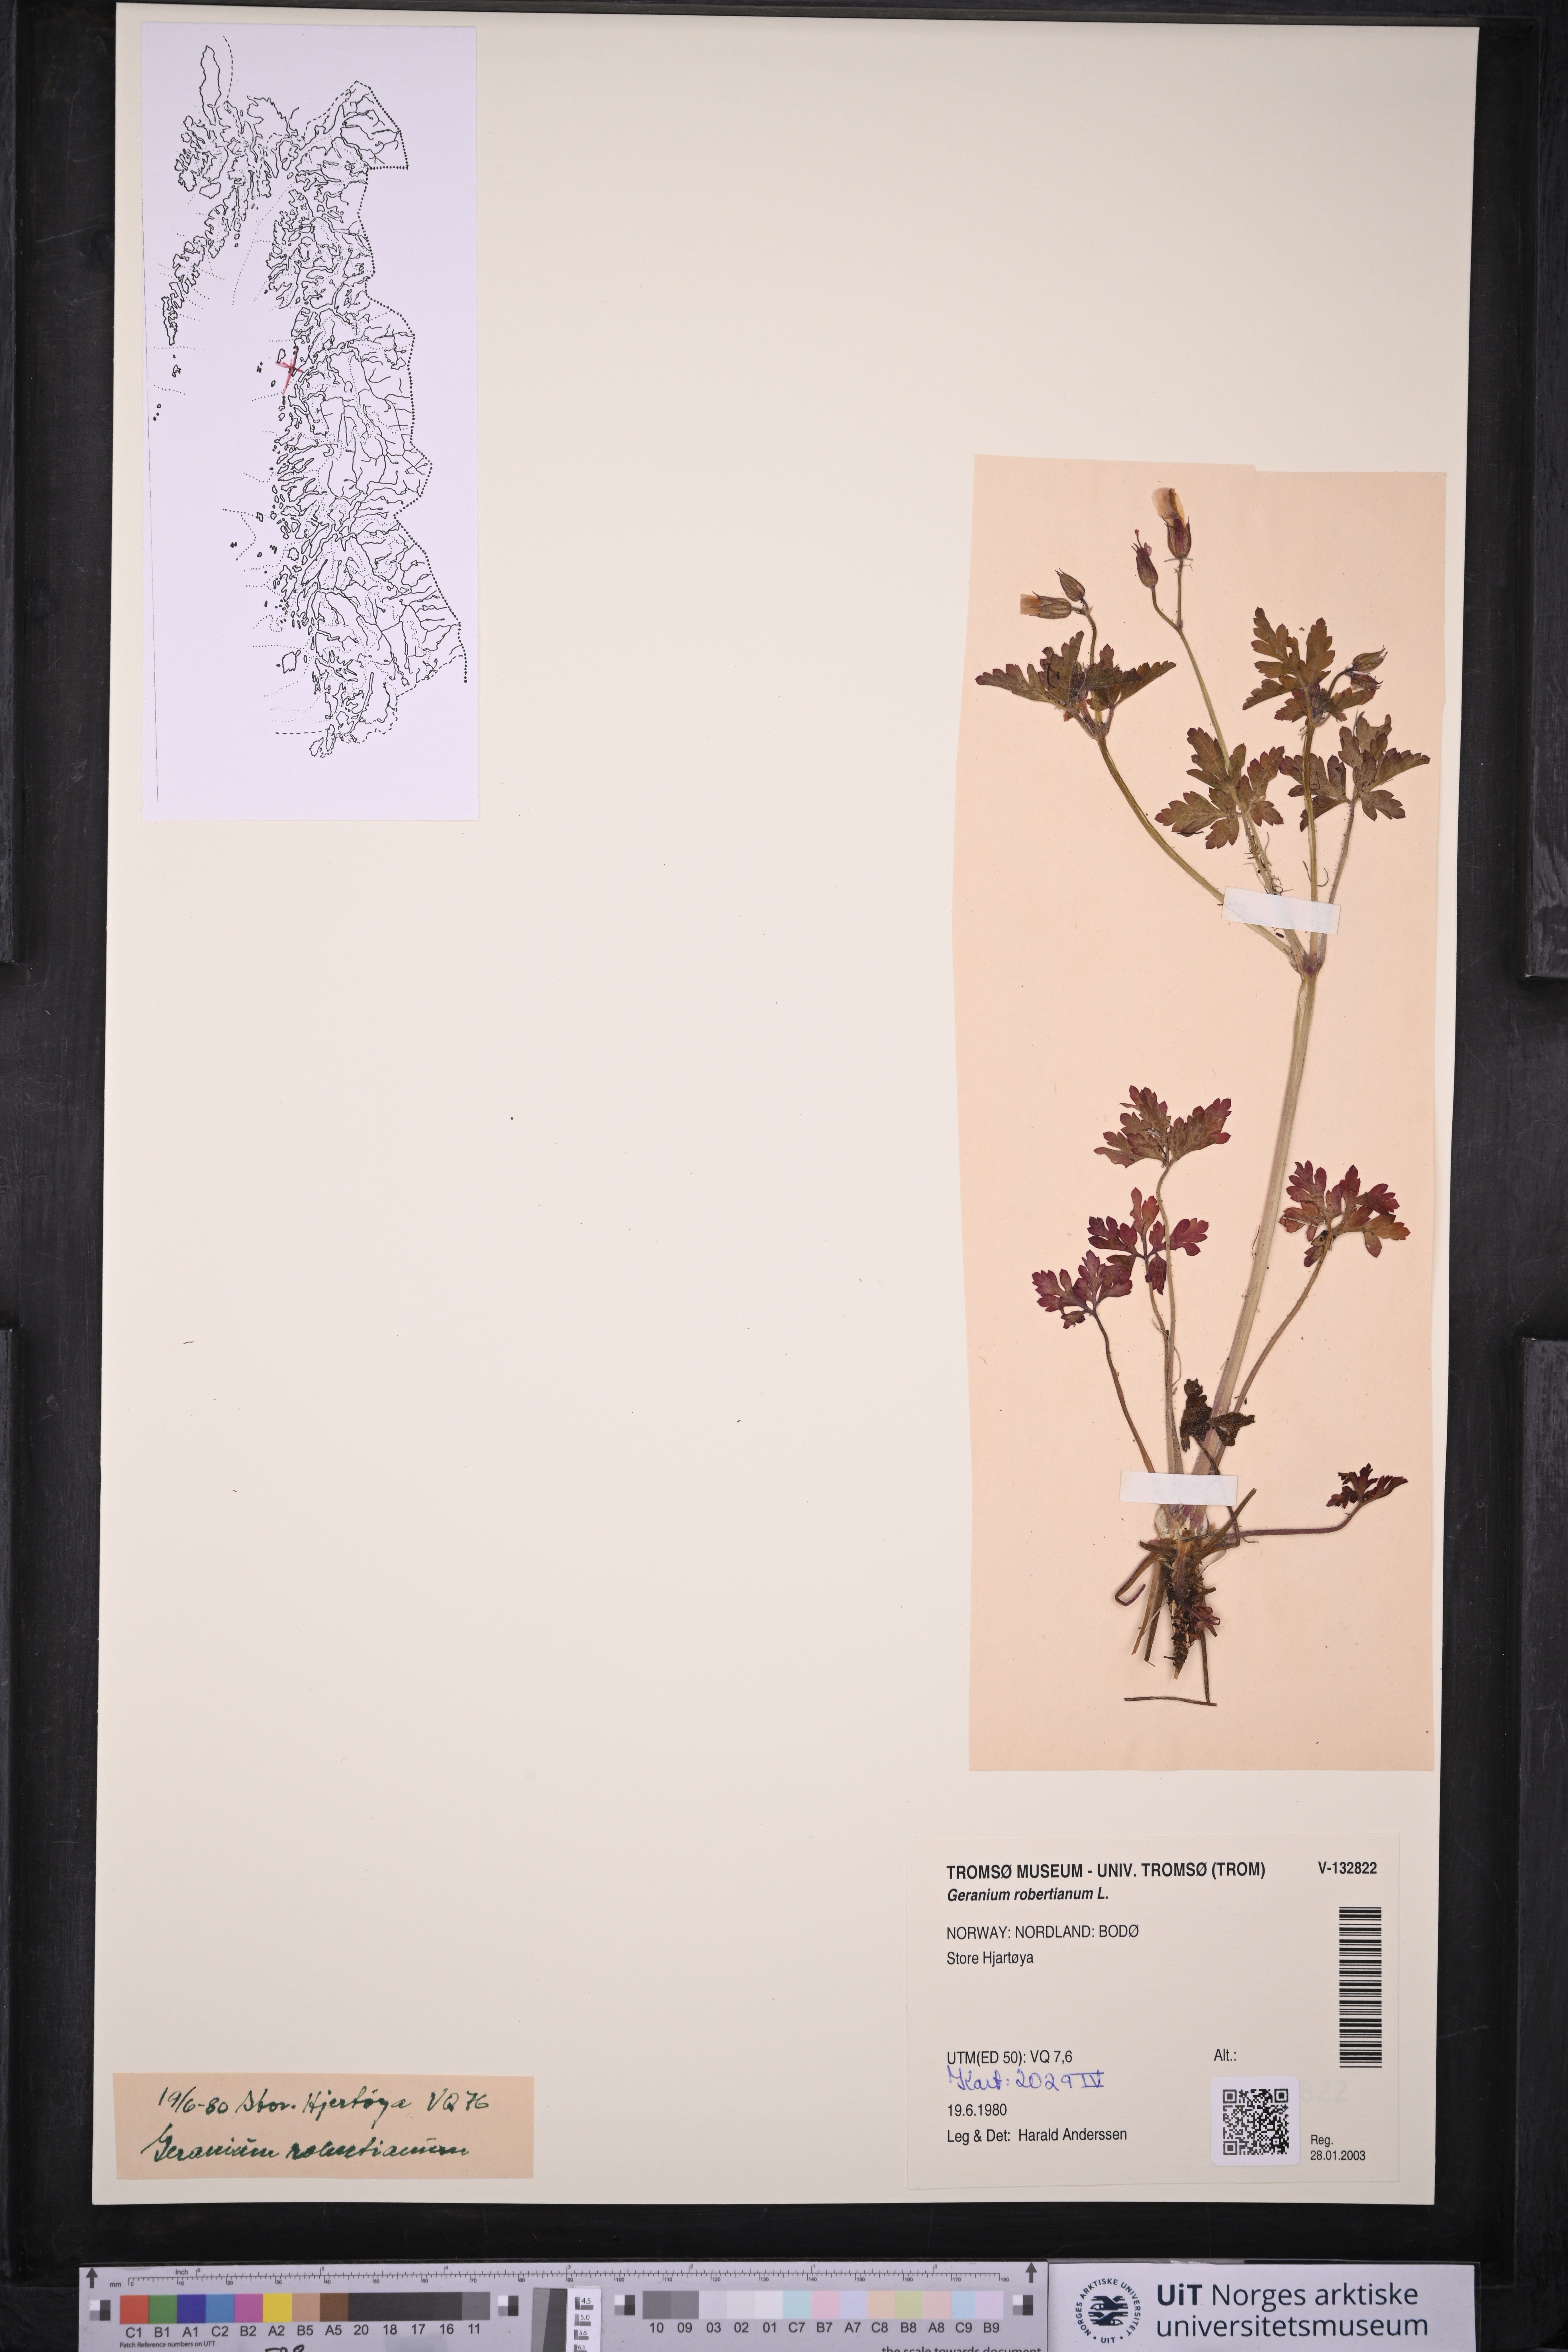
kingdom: Plantae
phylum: Tracheophyta
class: Magnoliopsida
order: Geraniales
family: Geraniaceae
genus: Geranium
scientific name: Geranium robertianum
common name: Herb-robert
